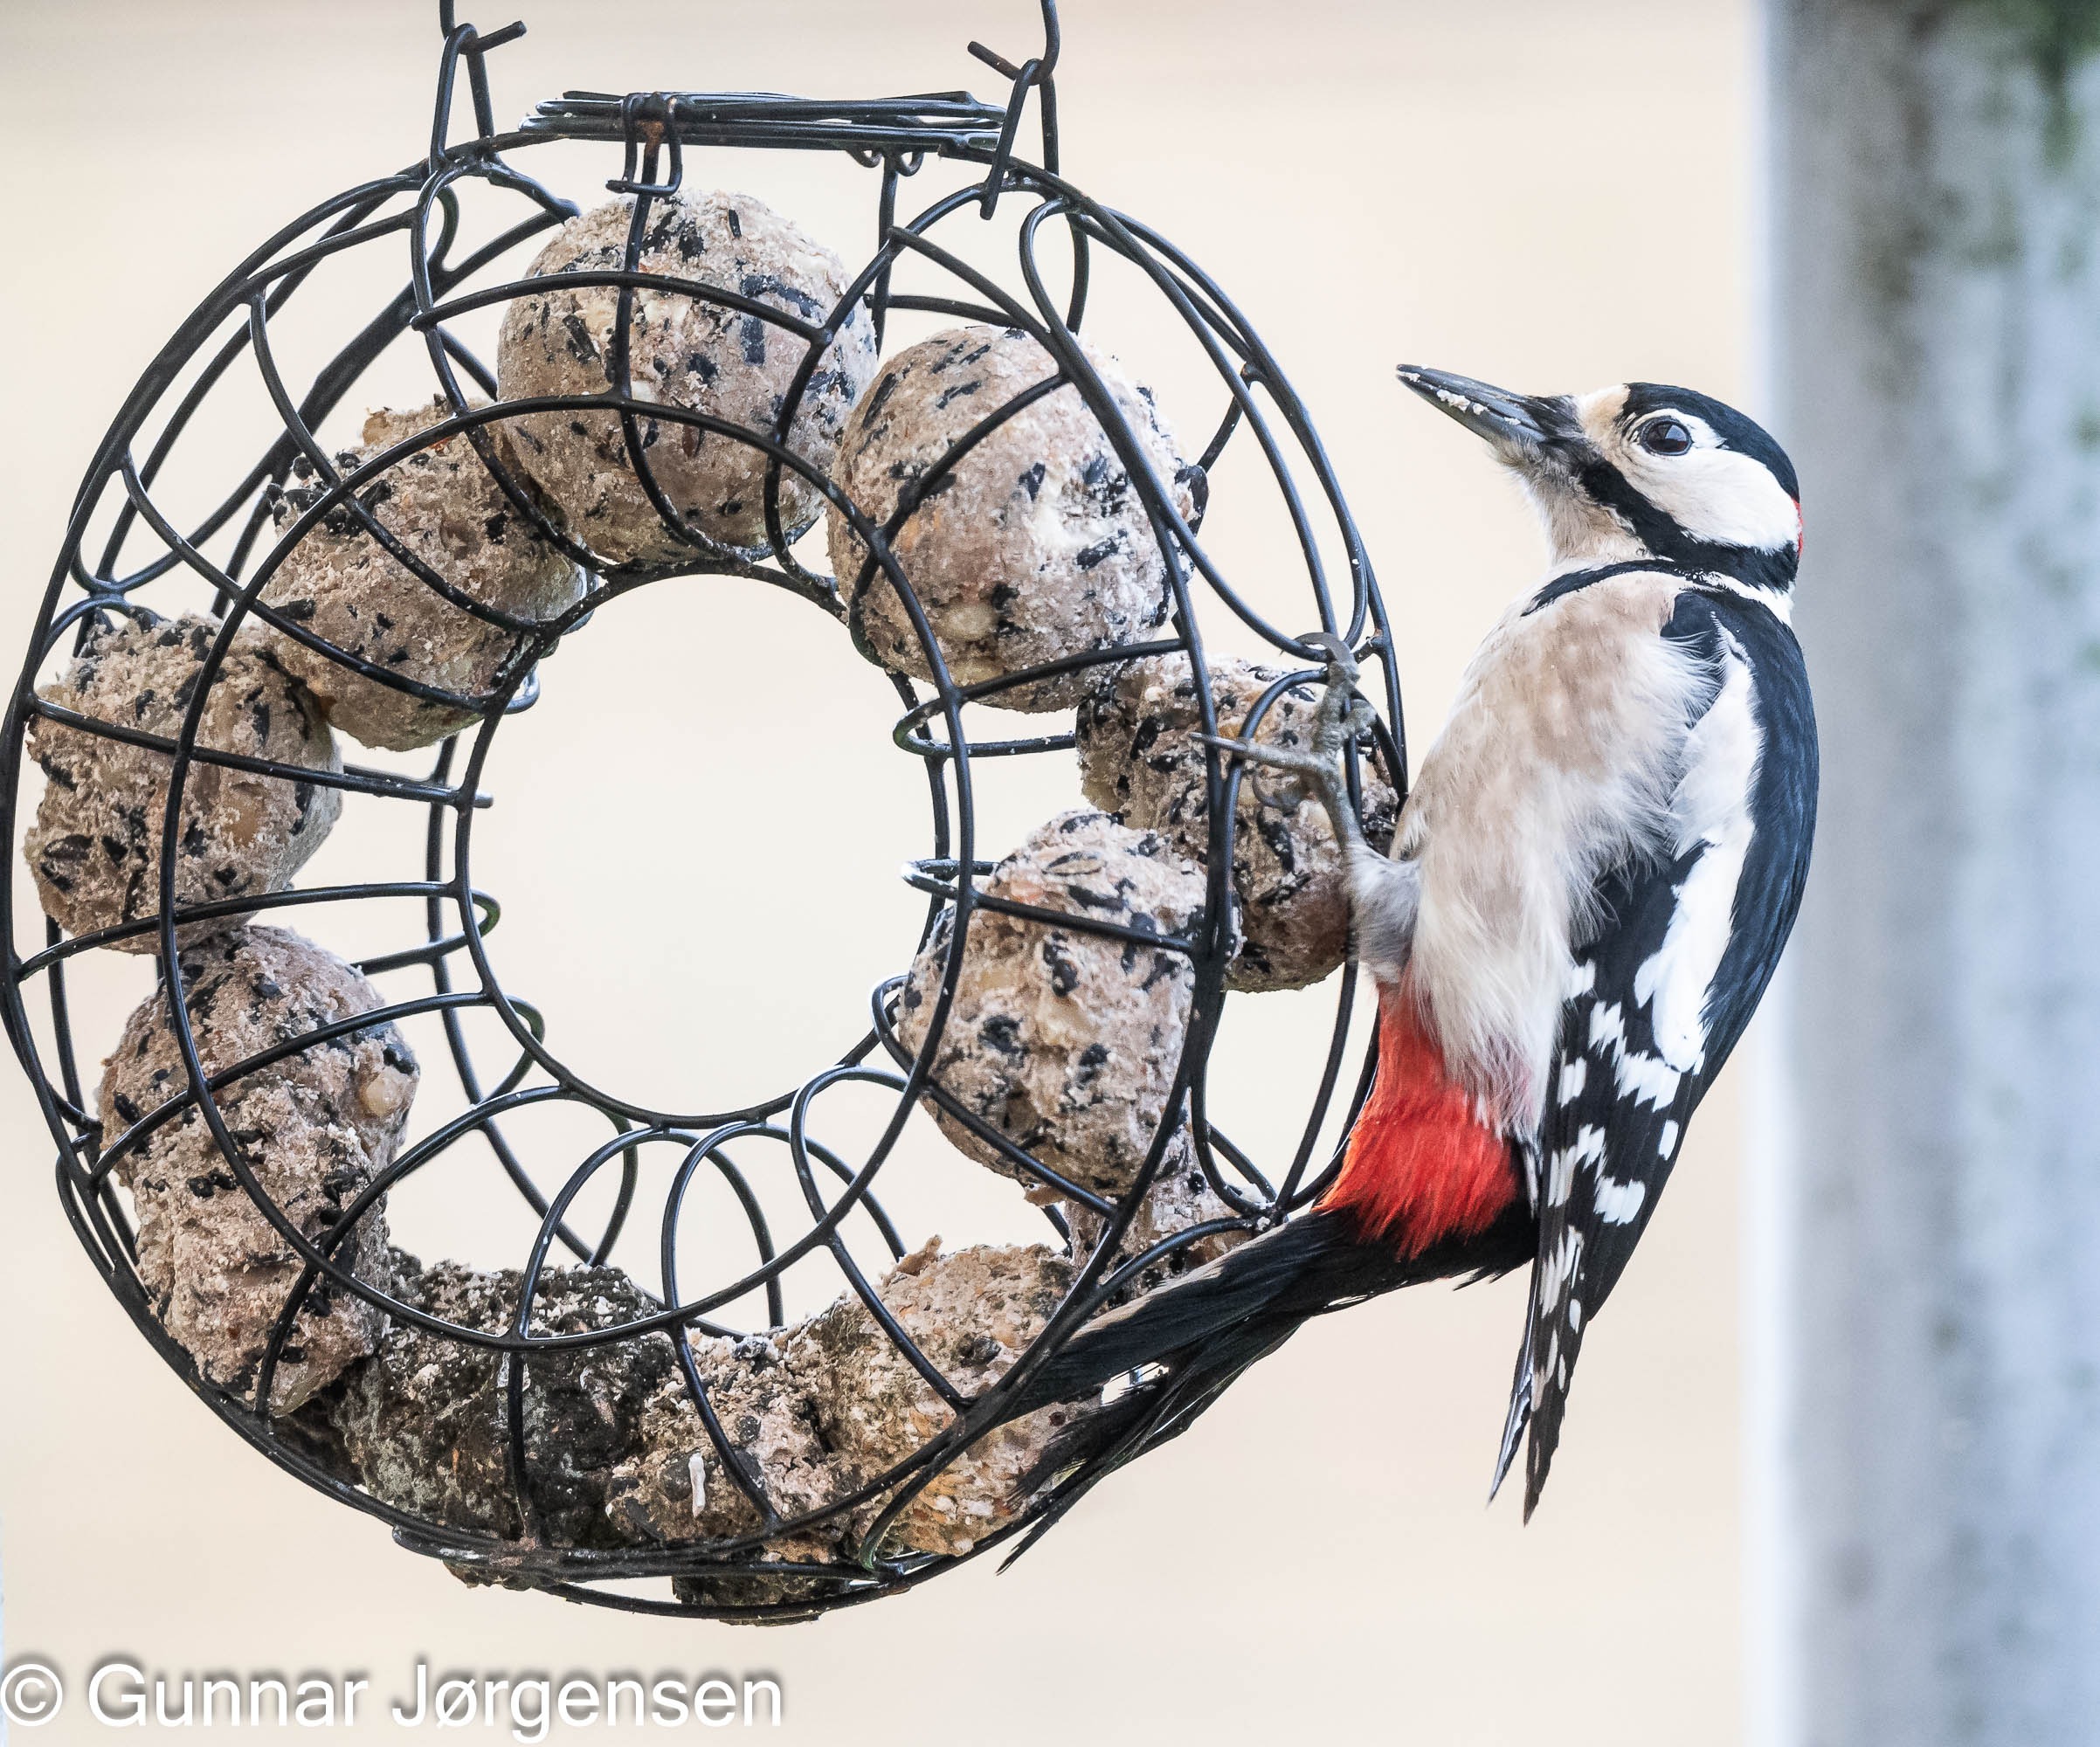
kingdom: Animalia
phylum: Chordata
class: Aves
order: Piciformes
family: Picidae
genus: Dendrocopos
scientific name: Dendrocopos major
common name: Stor flagspætte
